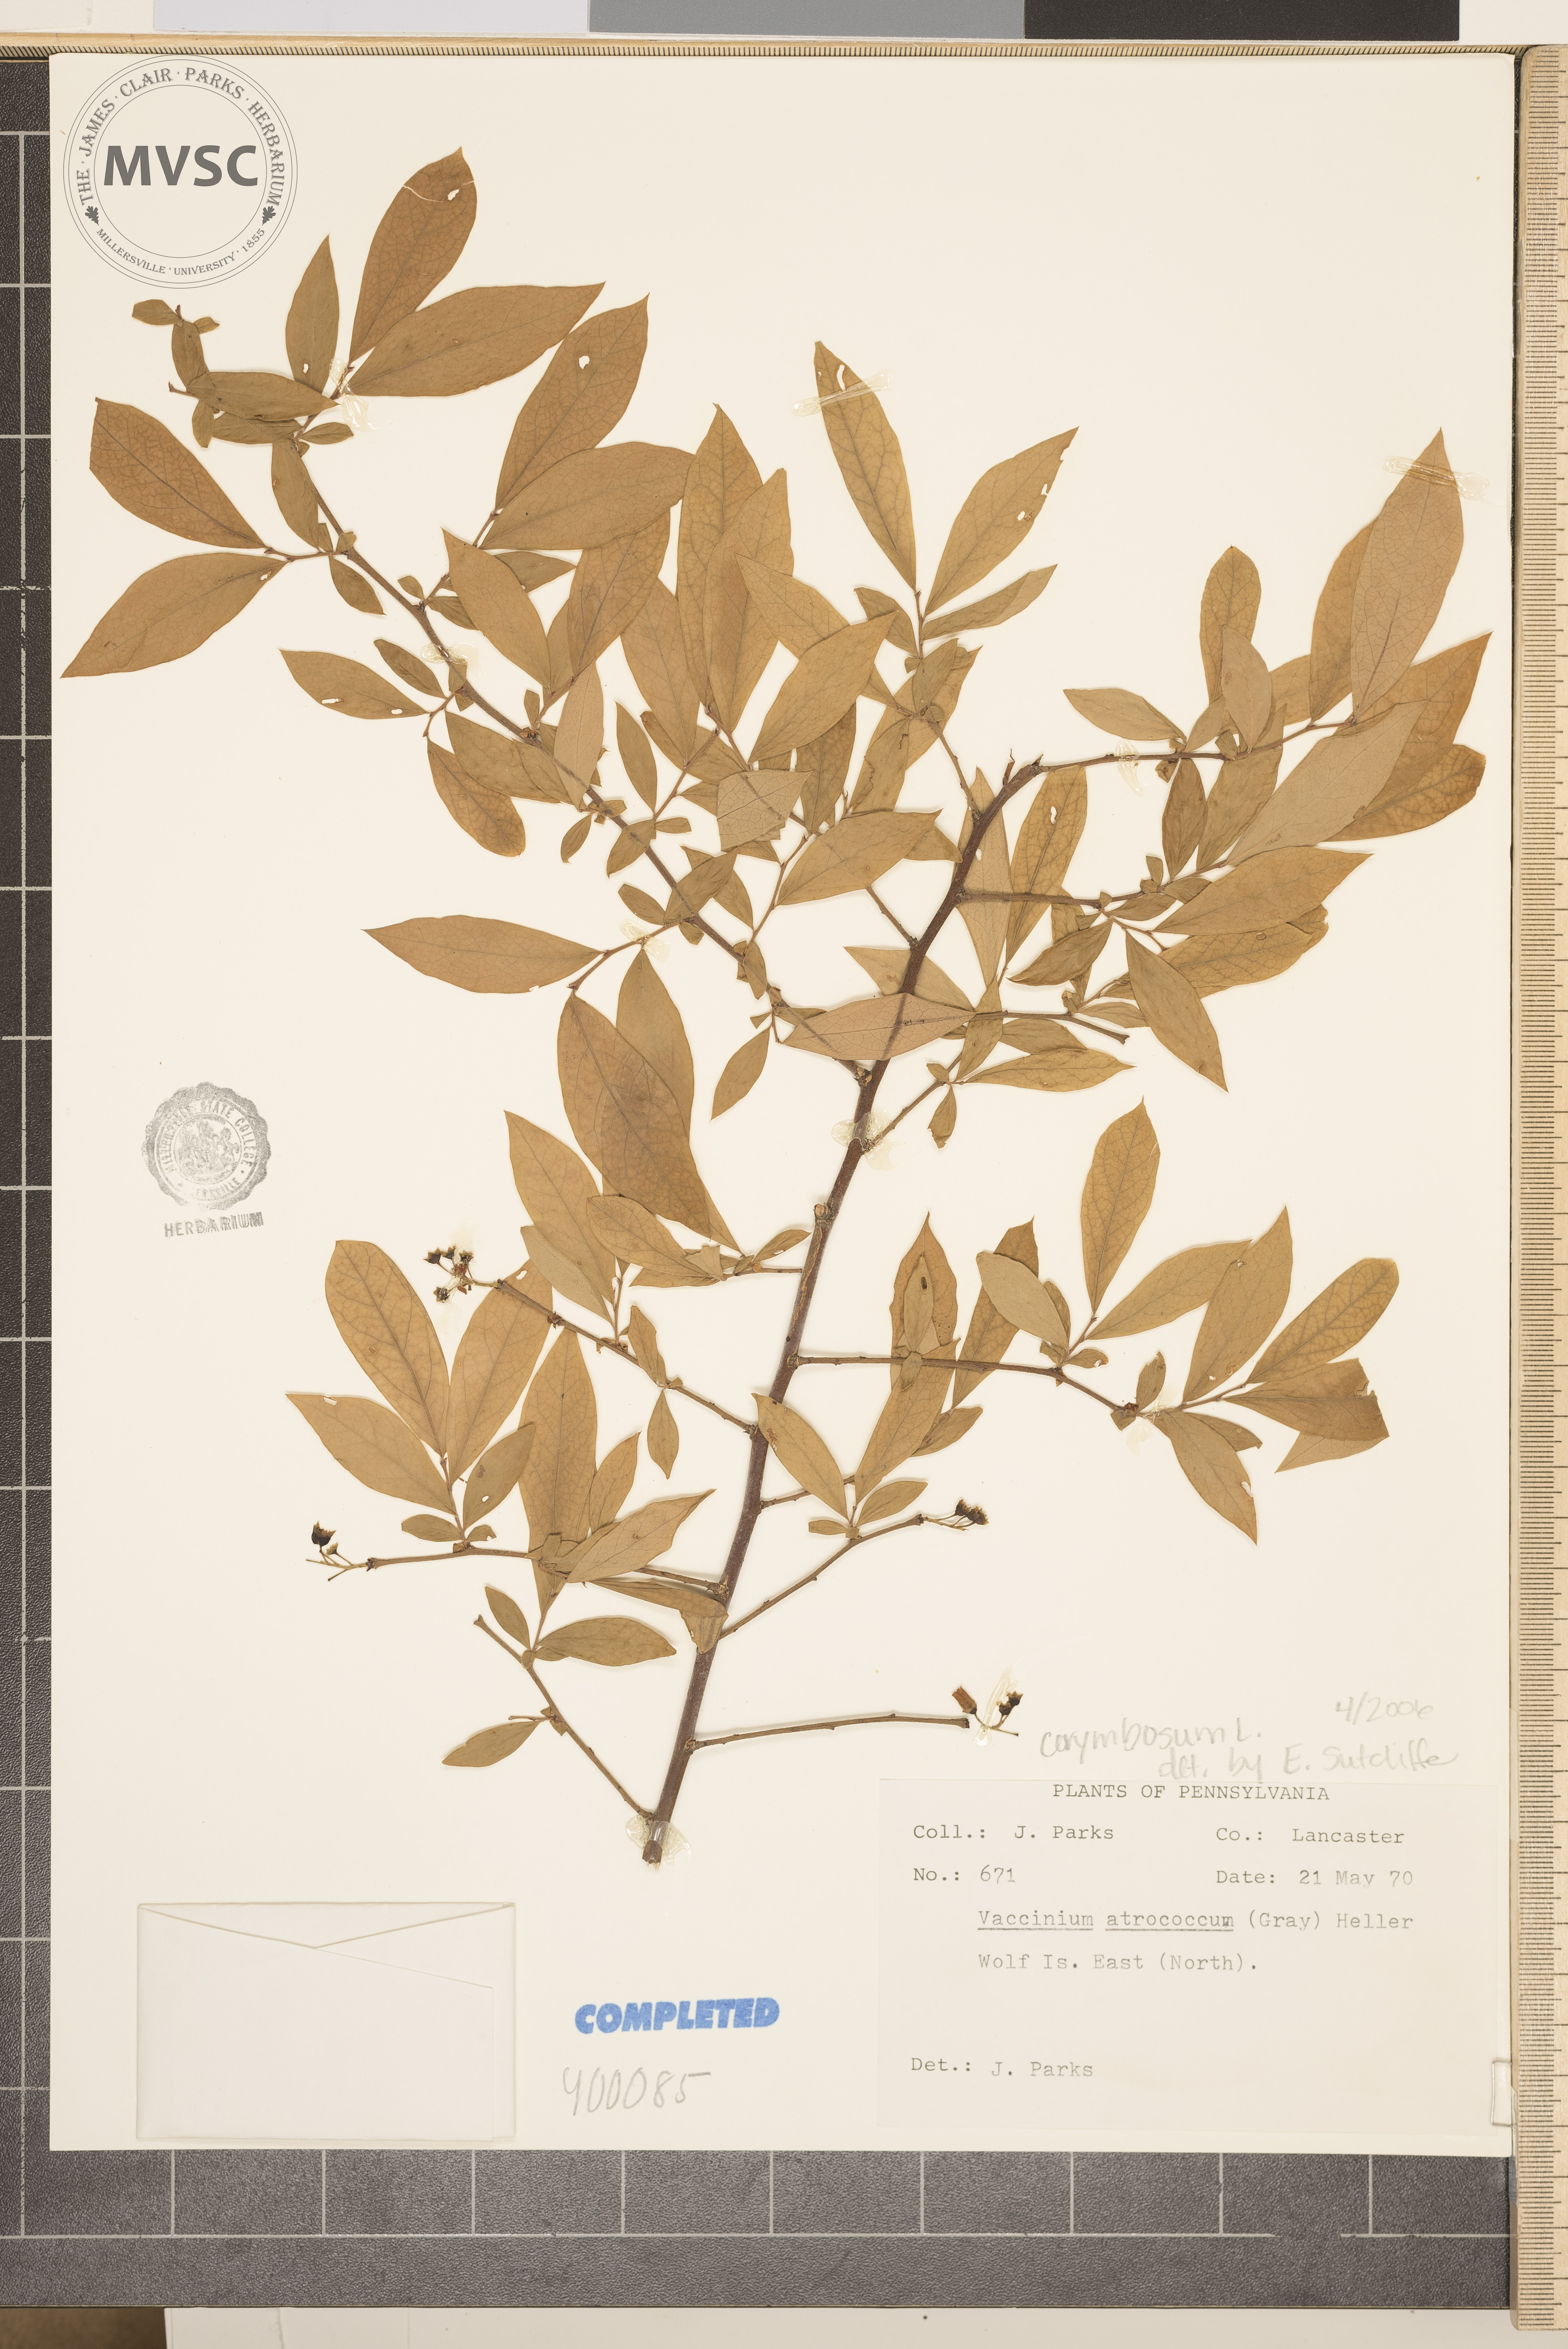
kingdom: Plantae
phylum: Tracheophyta
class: Magnoliopsida
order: Ericales
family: Ericaceae
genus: Vaccinium
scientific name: Vaccinium corymbosum
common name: blueberry
